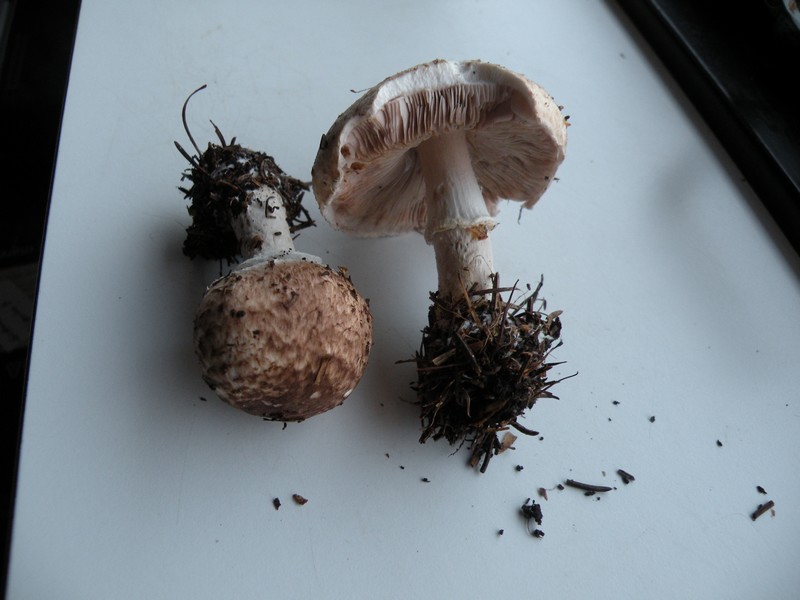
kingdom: Fungi
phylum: Basidiomycota
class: Agaricomycetes
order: Agaricales
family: Agaricaceae
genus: Agaricus
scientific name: Agaricus impudicus
